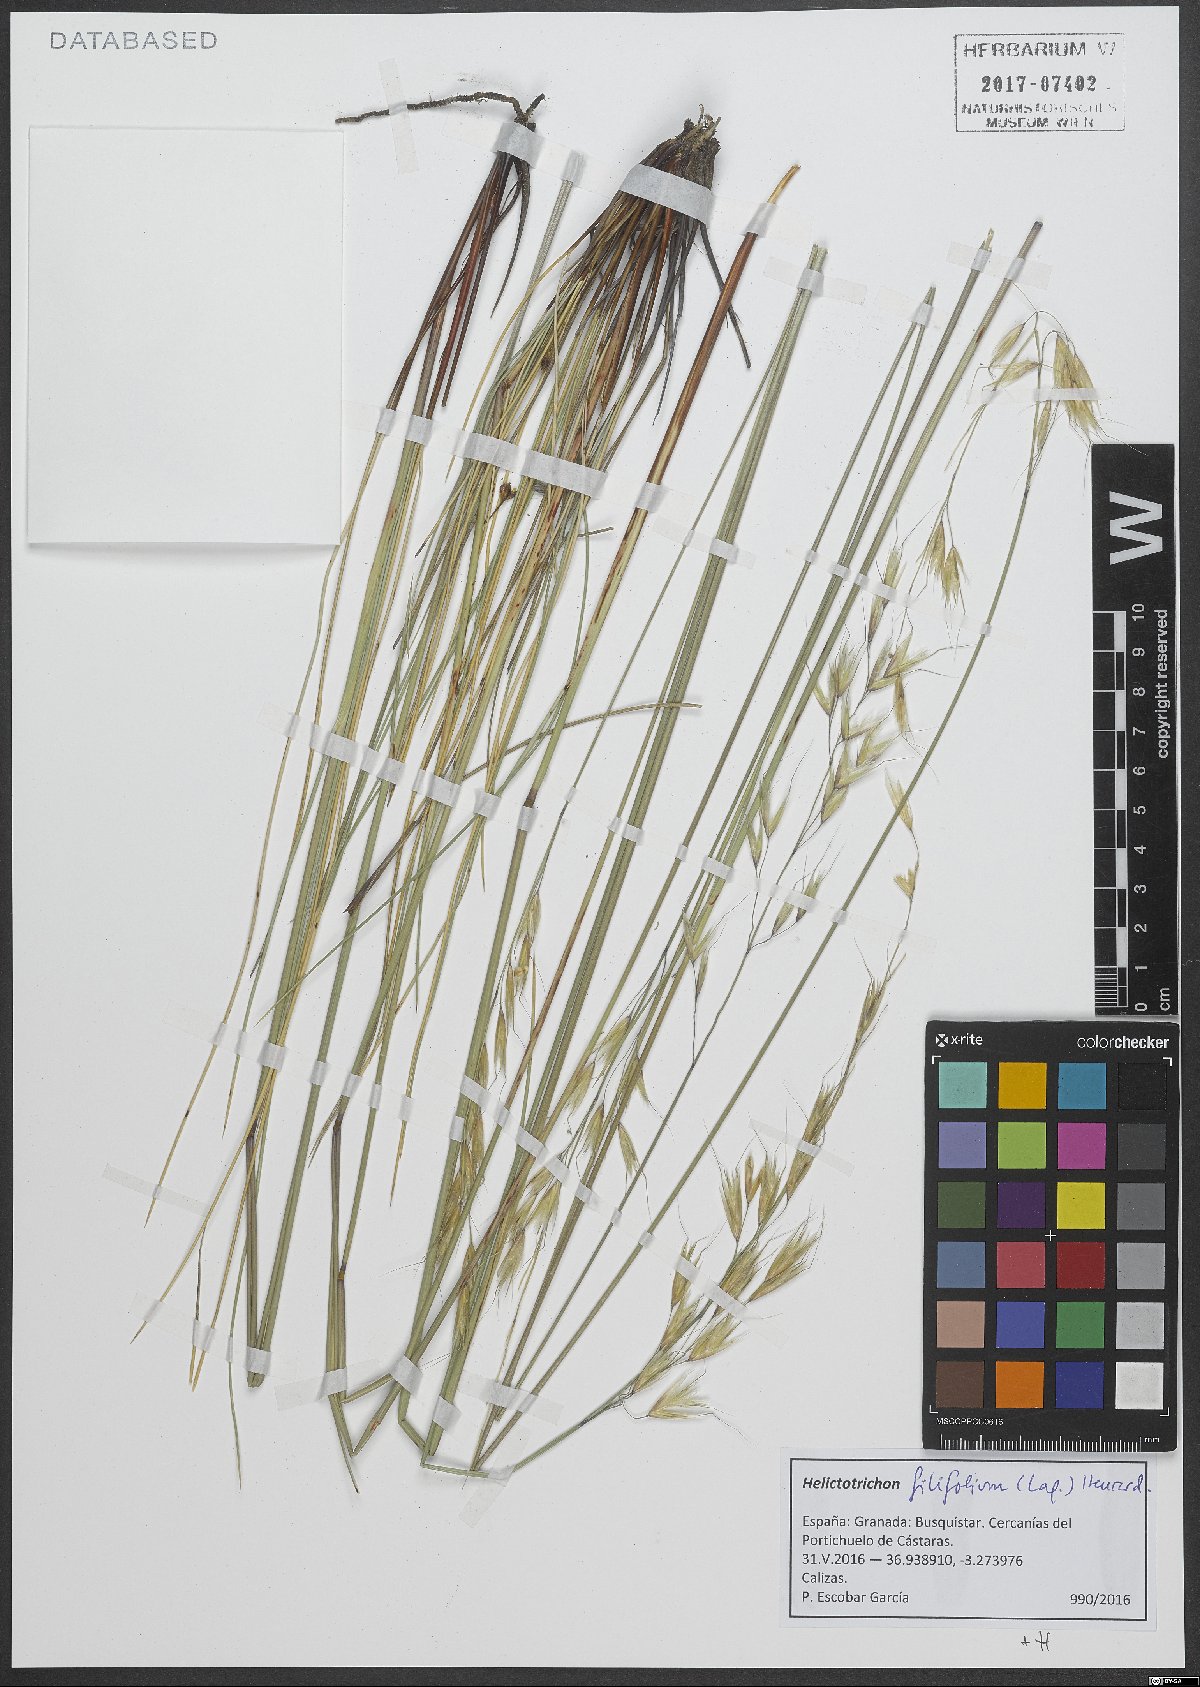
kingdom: Plantae
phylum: Tracheophyta
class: Liliopsida
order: Poales
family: Poaceae
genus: Helictotrichon
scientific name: Helictotrichon filifolium
